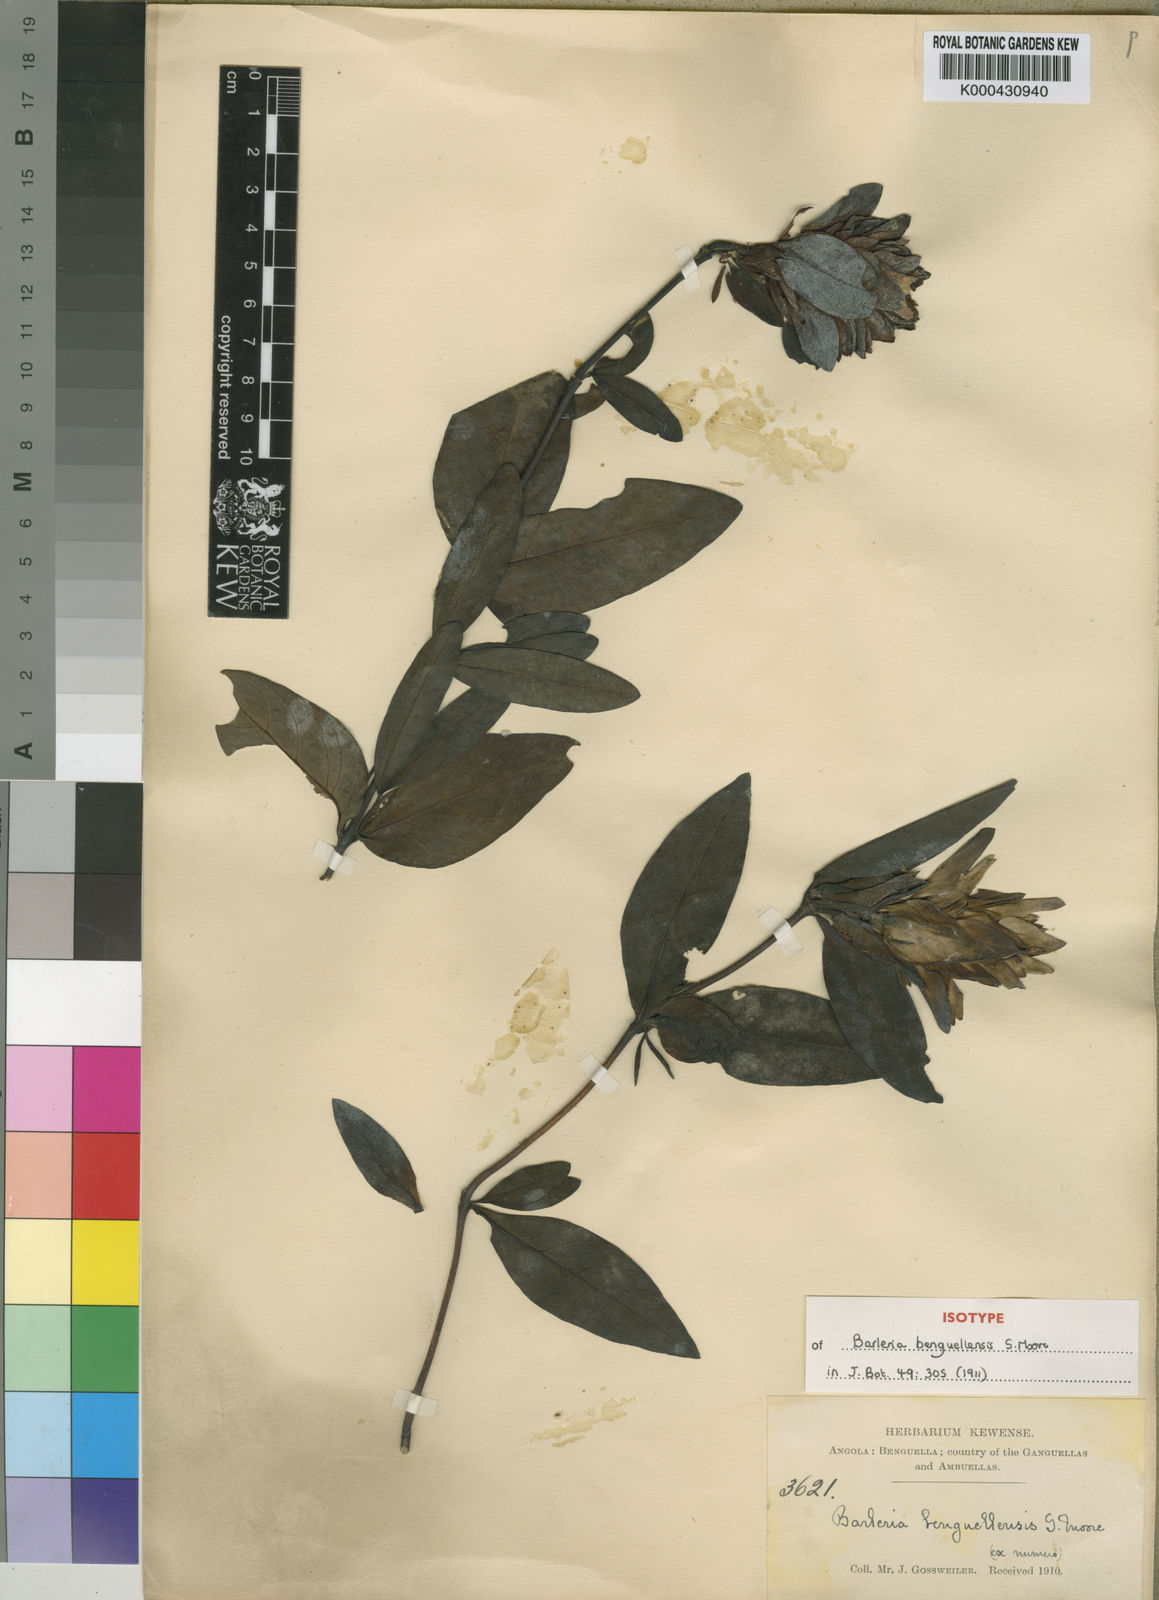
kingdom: Plantae
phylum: Tracheophyta
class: Magnoliopsida
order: Lamiales
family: Acanthaceae
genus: Barleria
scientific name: Barleria benguellensis
